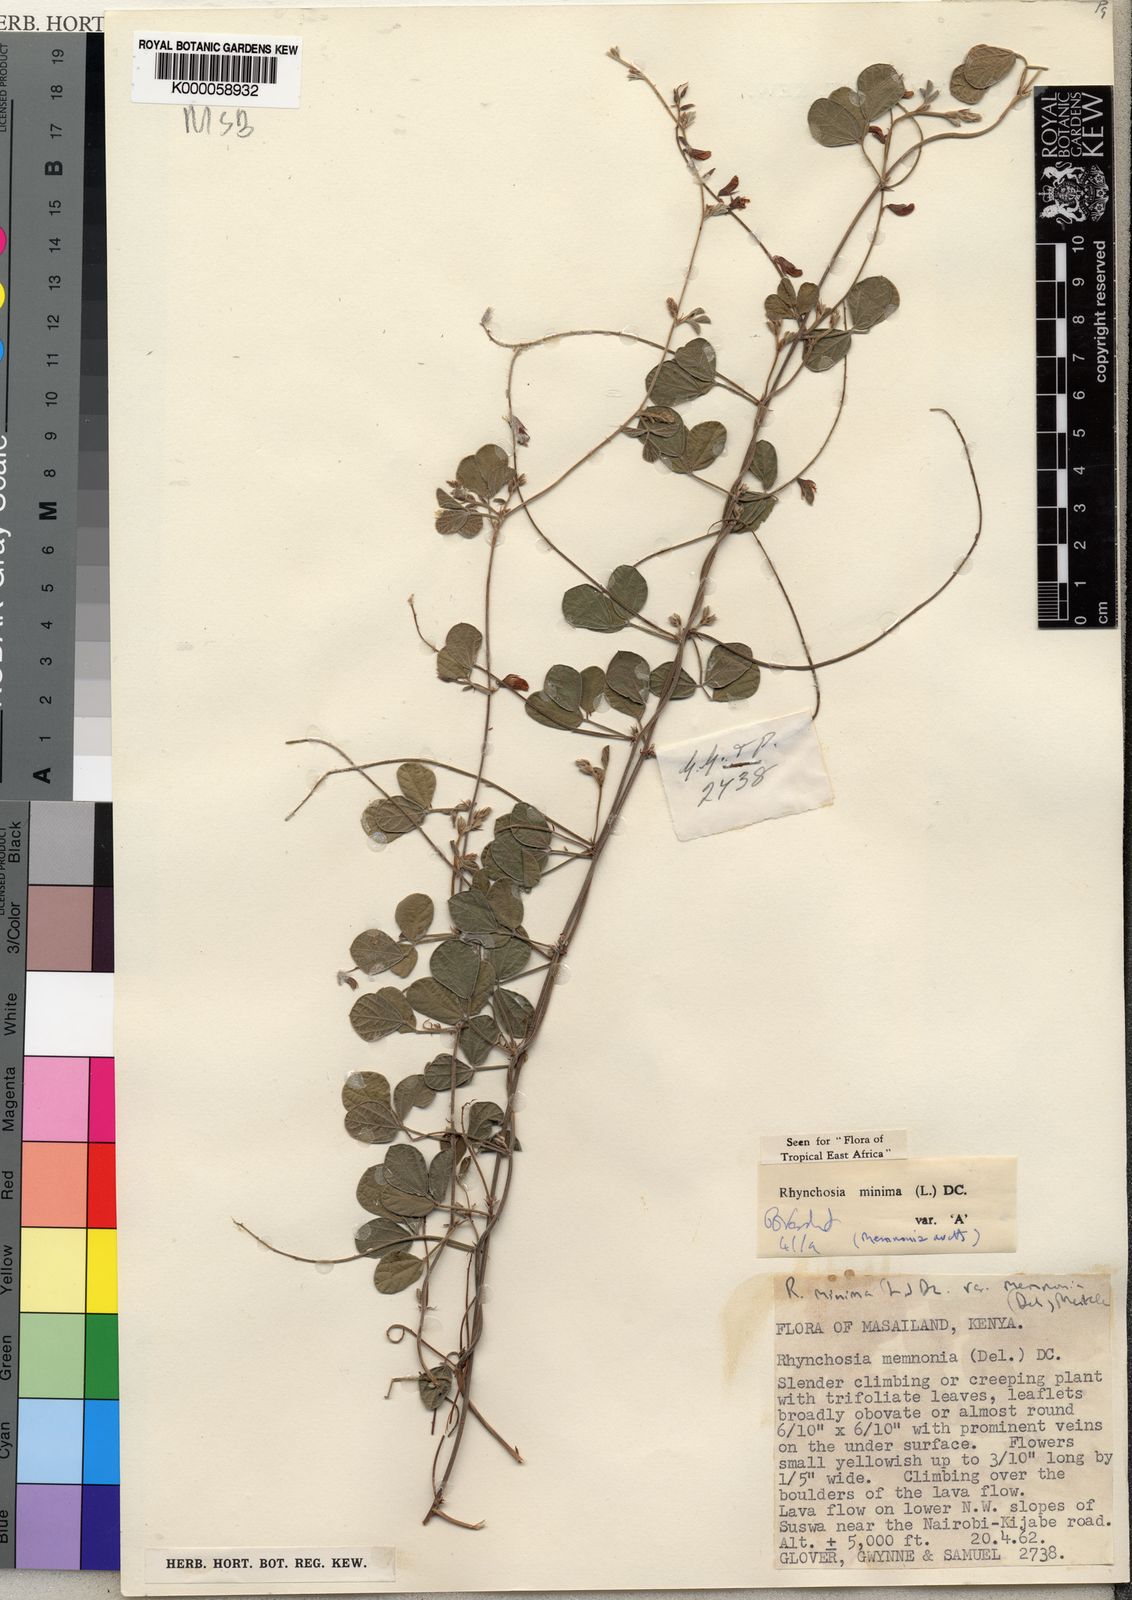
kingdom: Plantae
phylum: Tracheophyta
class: Magnoliopsida
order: Fabales
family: Fabaceae
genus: Rhynchosia
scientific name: Rhynchosia minima
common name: Least snoutbean
